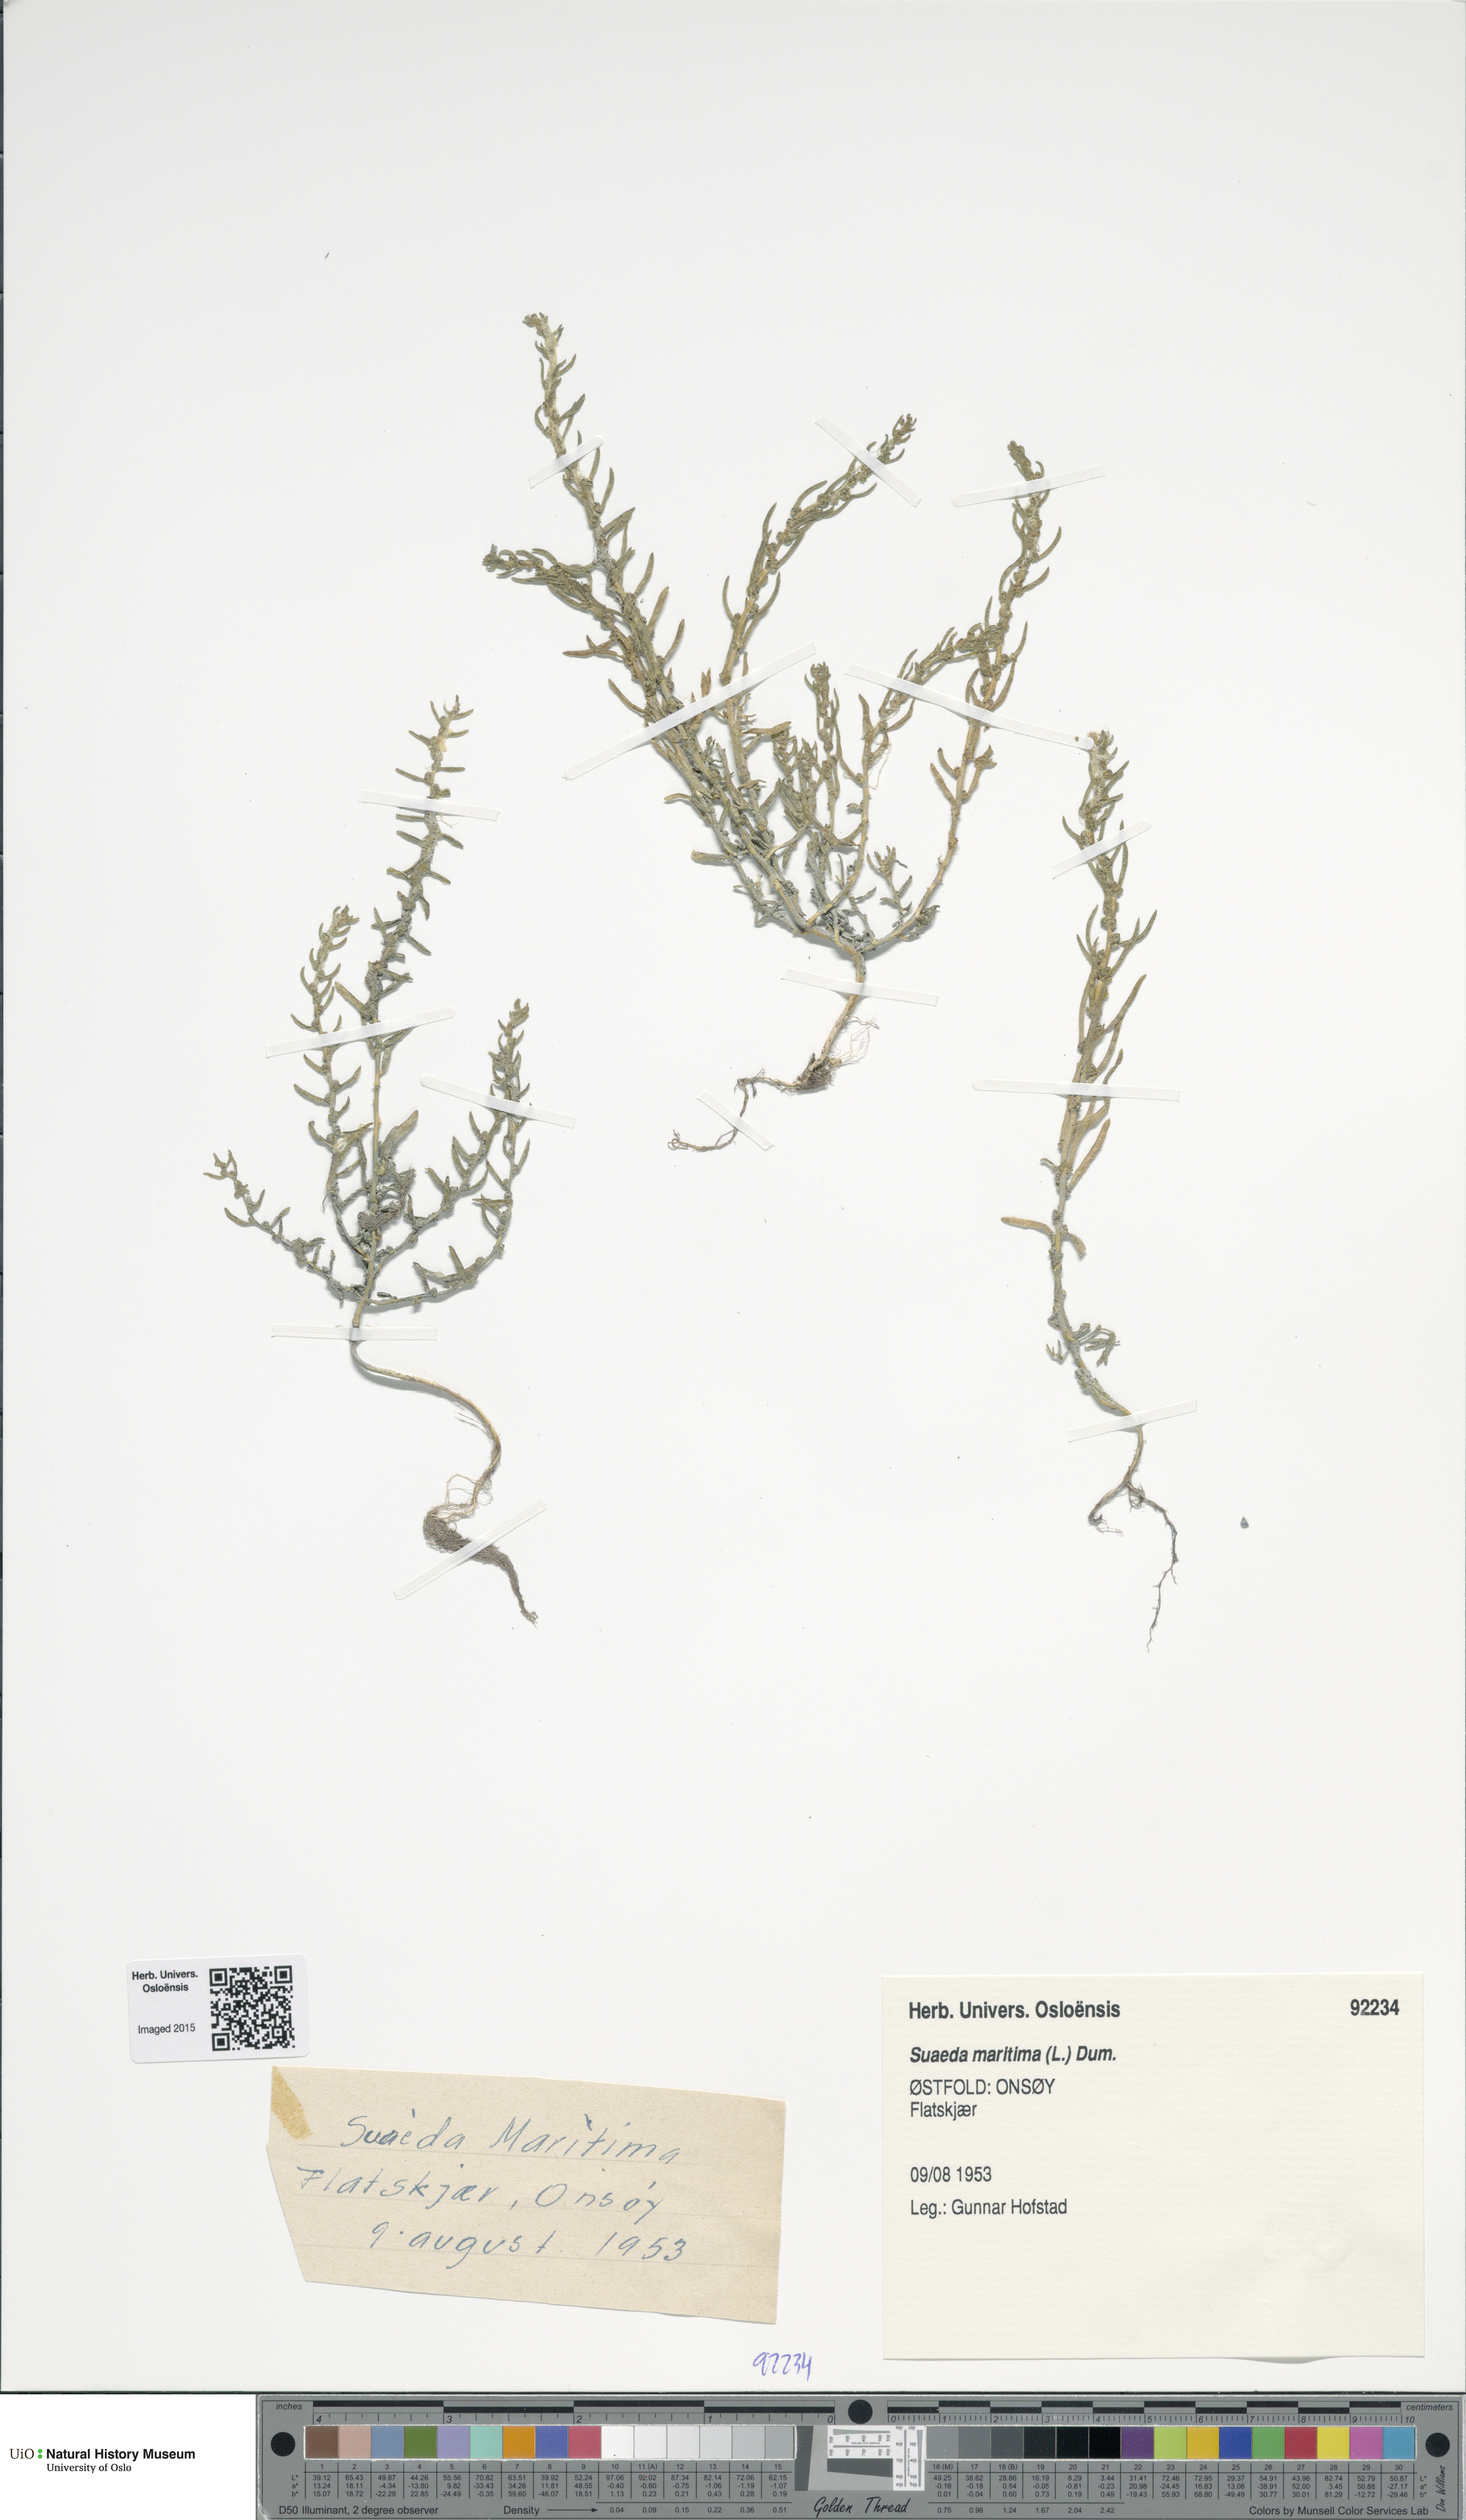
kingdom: Plantae
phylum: Tracheophyta
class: Magnoliopsida
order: Caryophyllales
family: Amaranthaceae
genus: Suaeda
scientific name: Suaeda maritima
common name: Annual sea-blite
